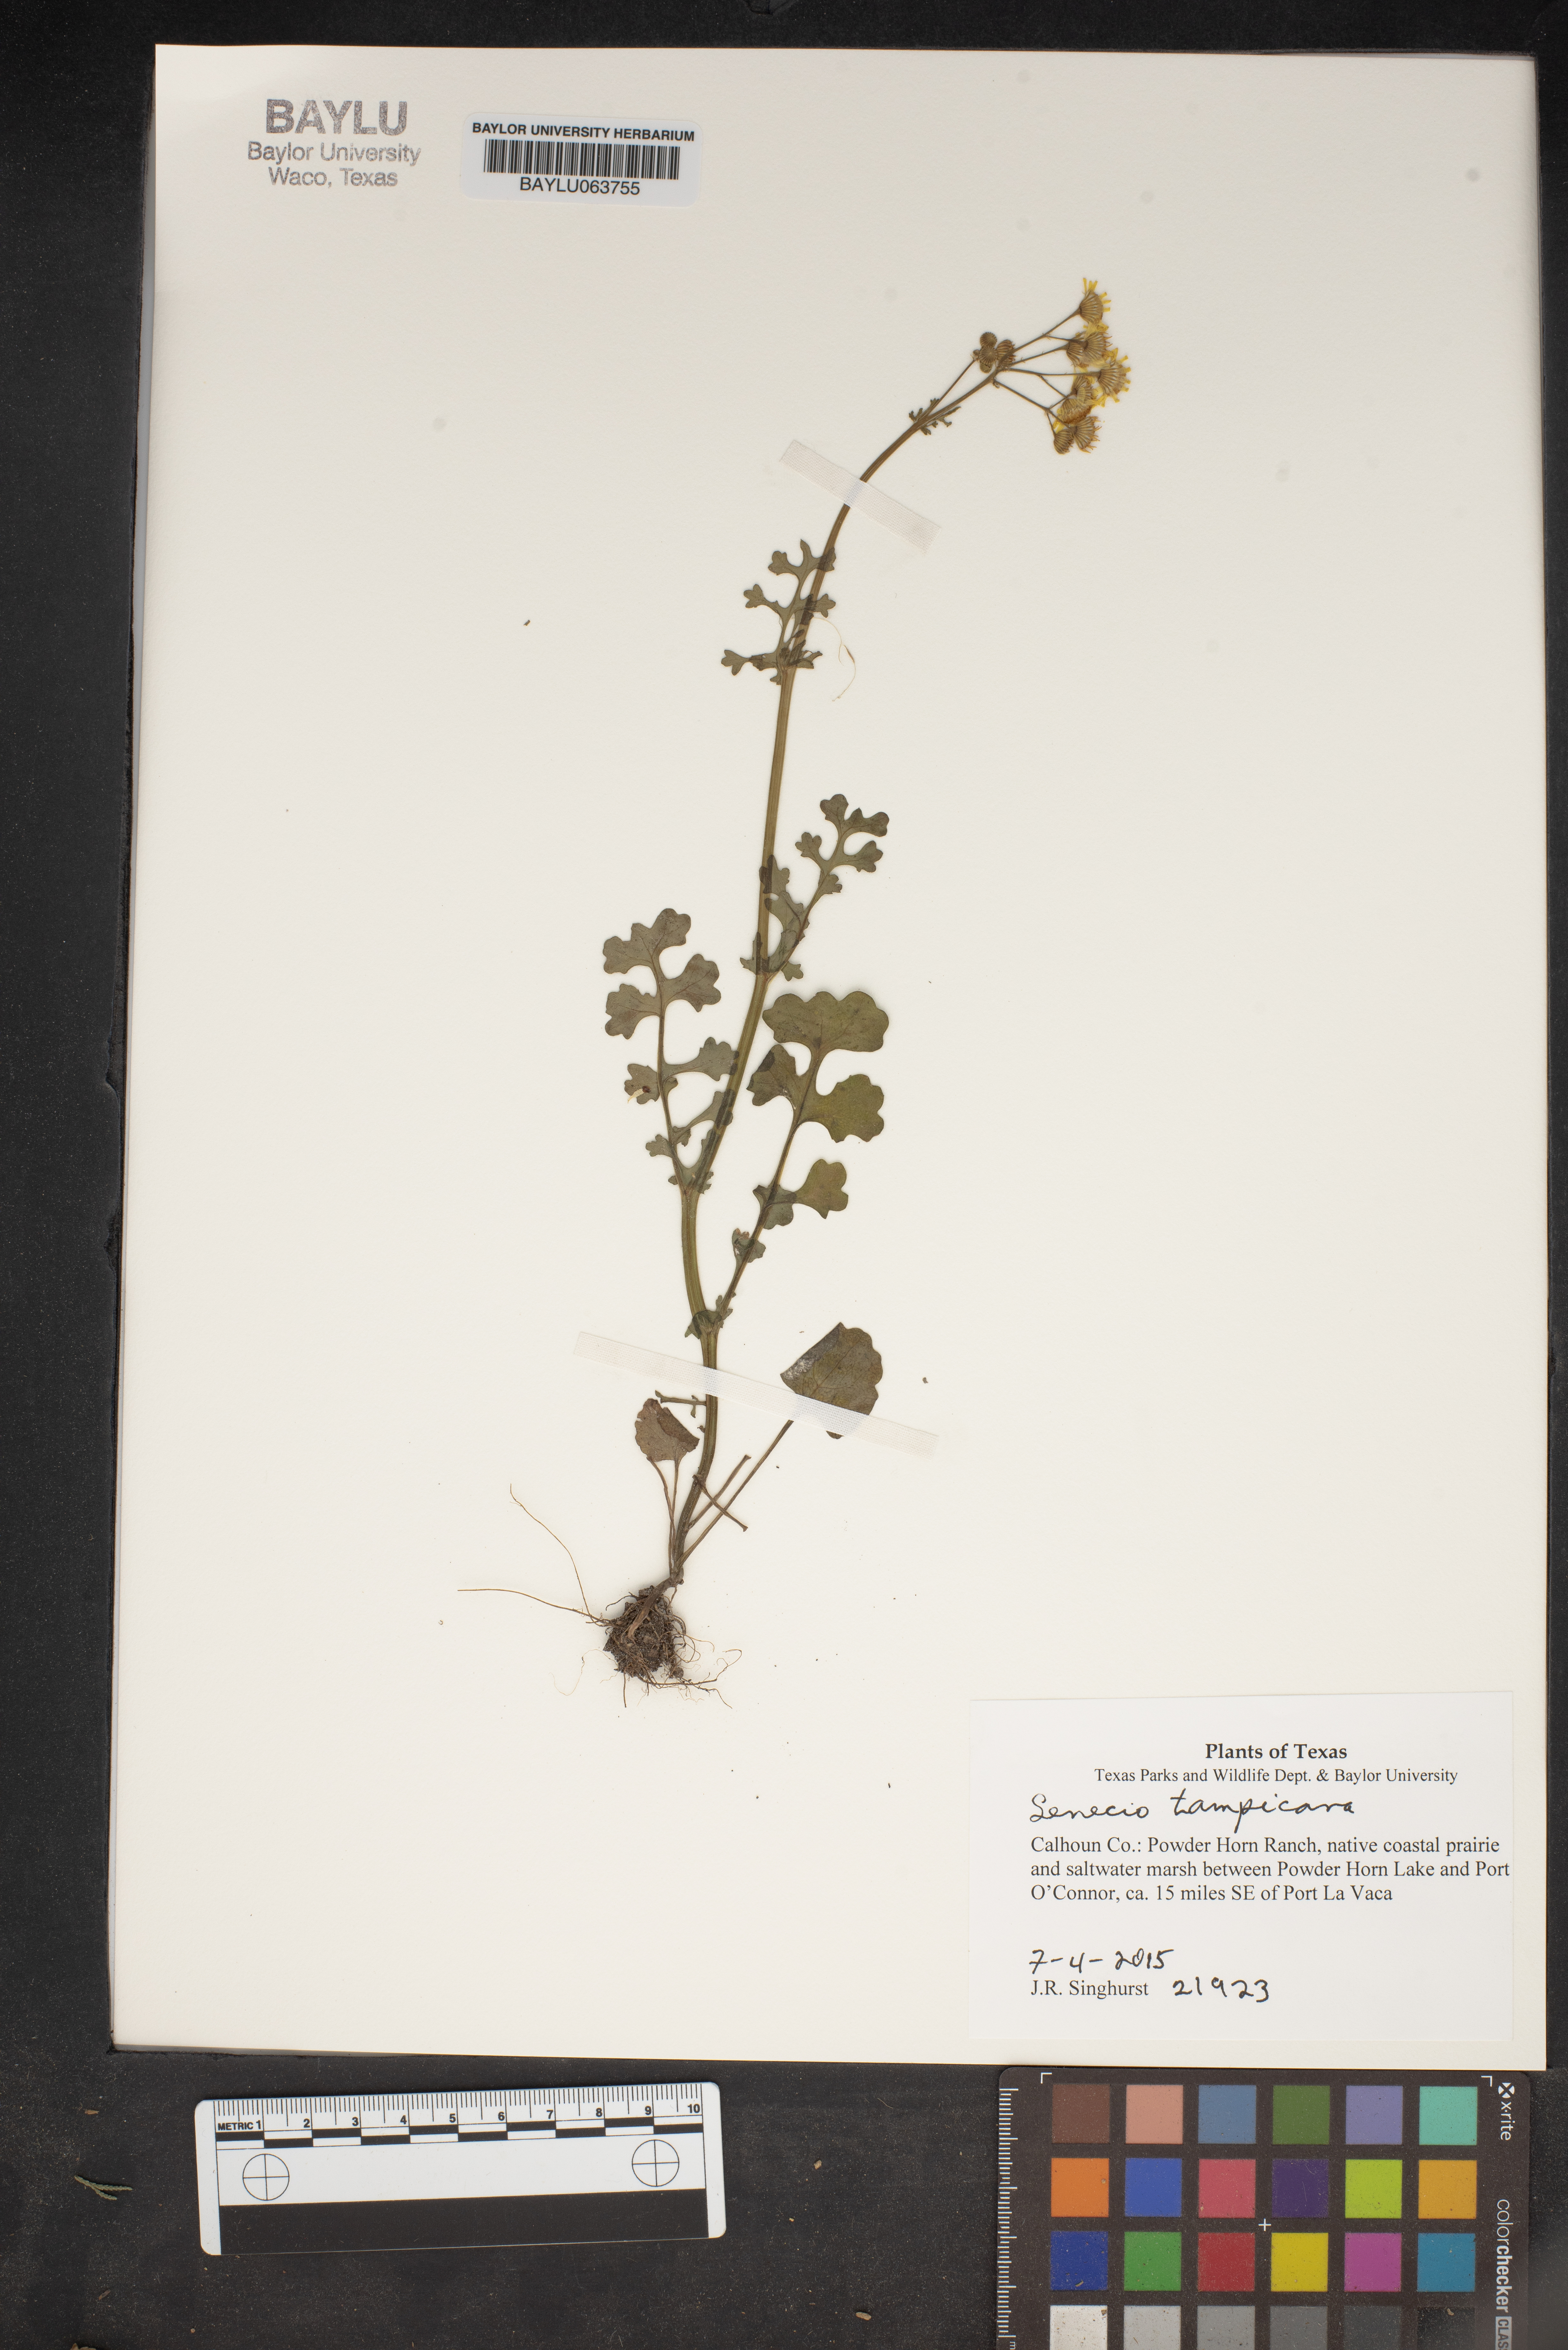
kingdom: Plantae
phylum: Tracheophyta
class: Magnoliopsida
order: Asterales
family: Asteraceae
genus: Packera
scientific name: Packera tampicana
